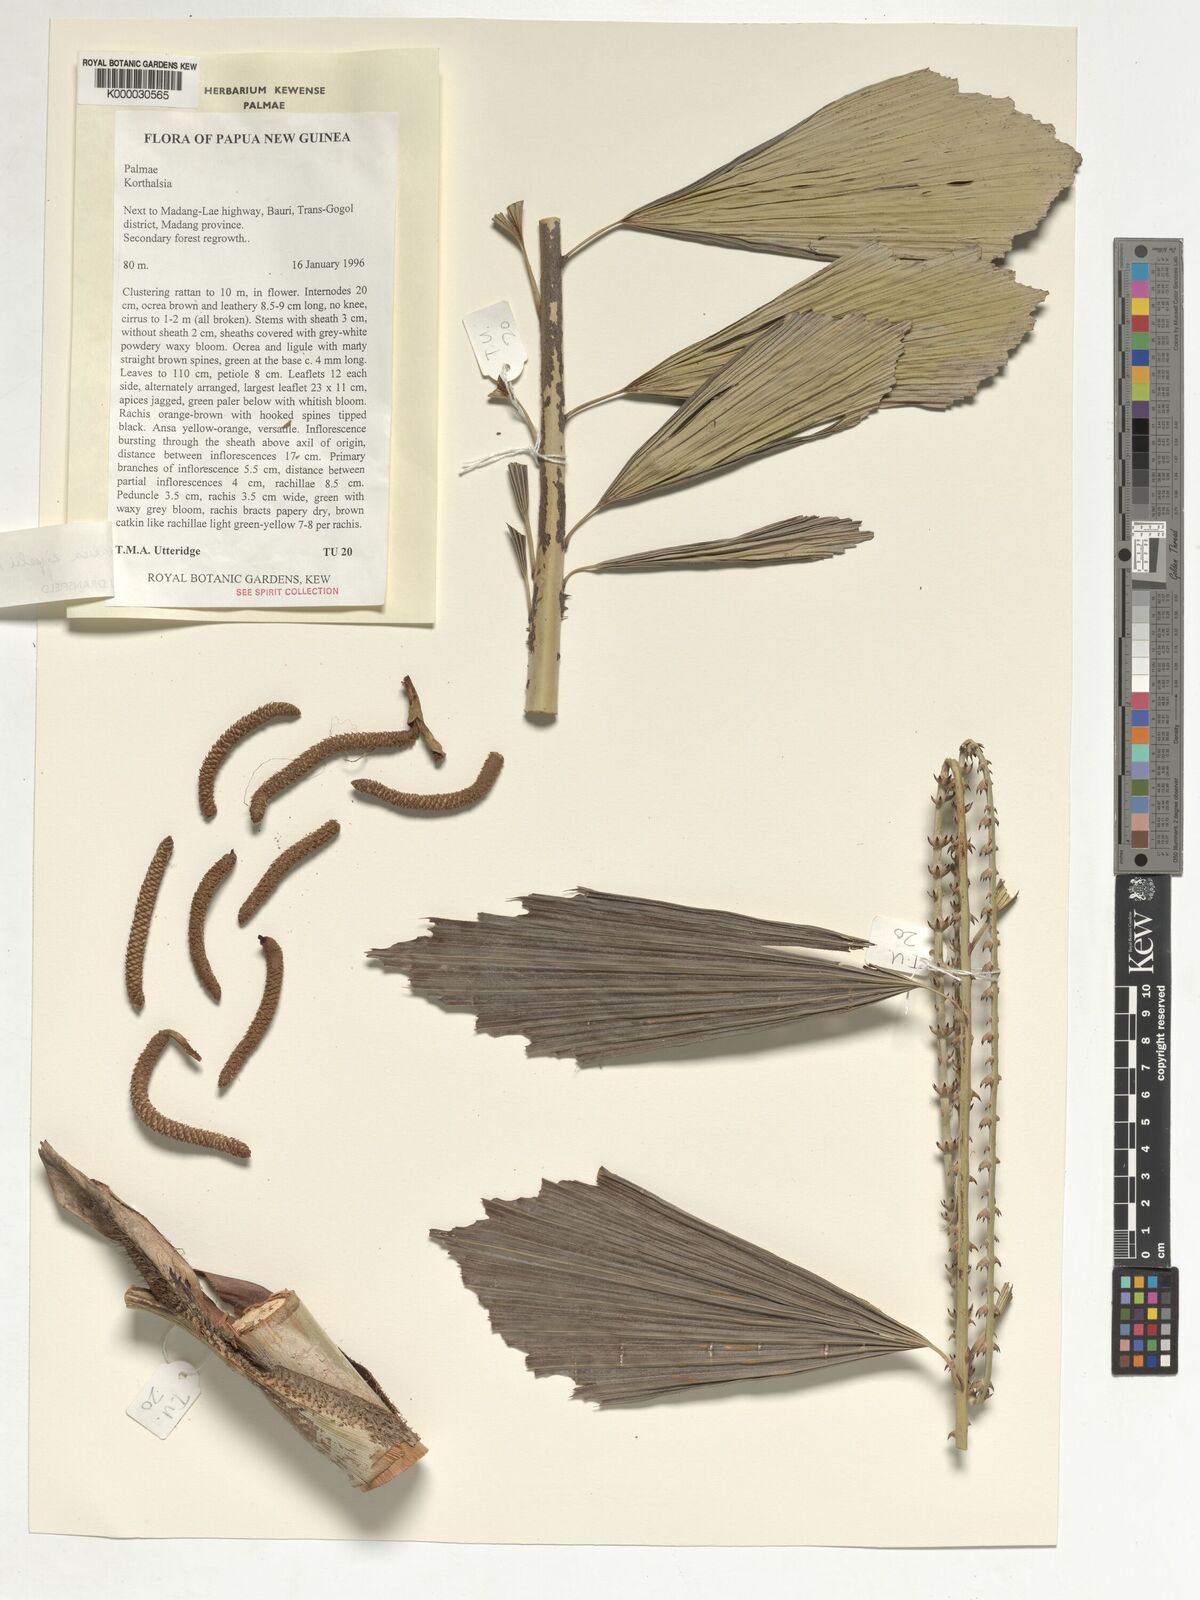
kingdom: Plantae
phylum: Tracheophyta
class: Liliopsida
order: Arecales
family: Arecaceae
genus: Korthalsia
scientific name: Korthalsia zippelii
